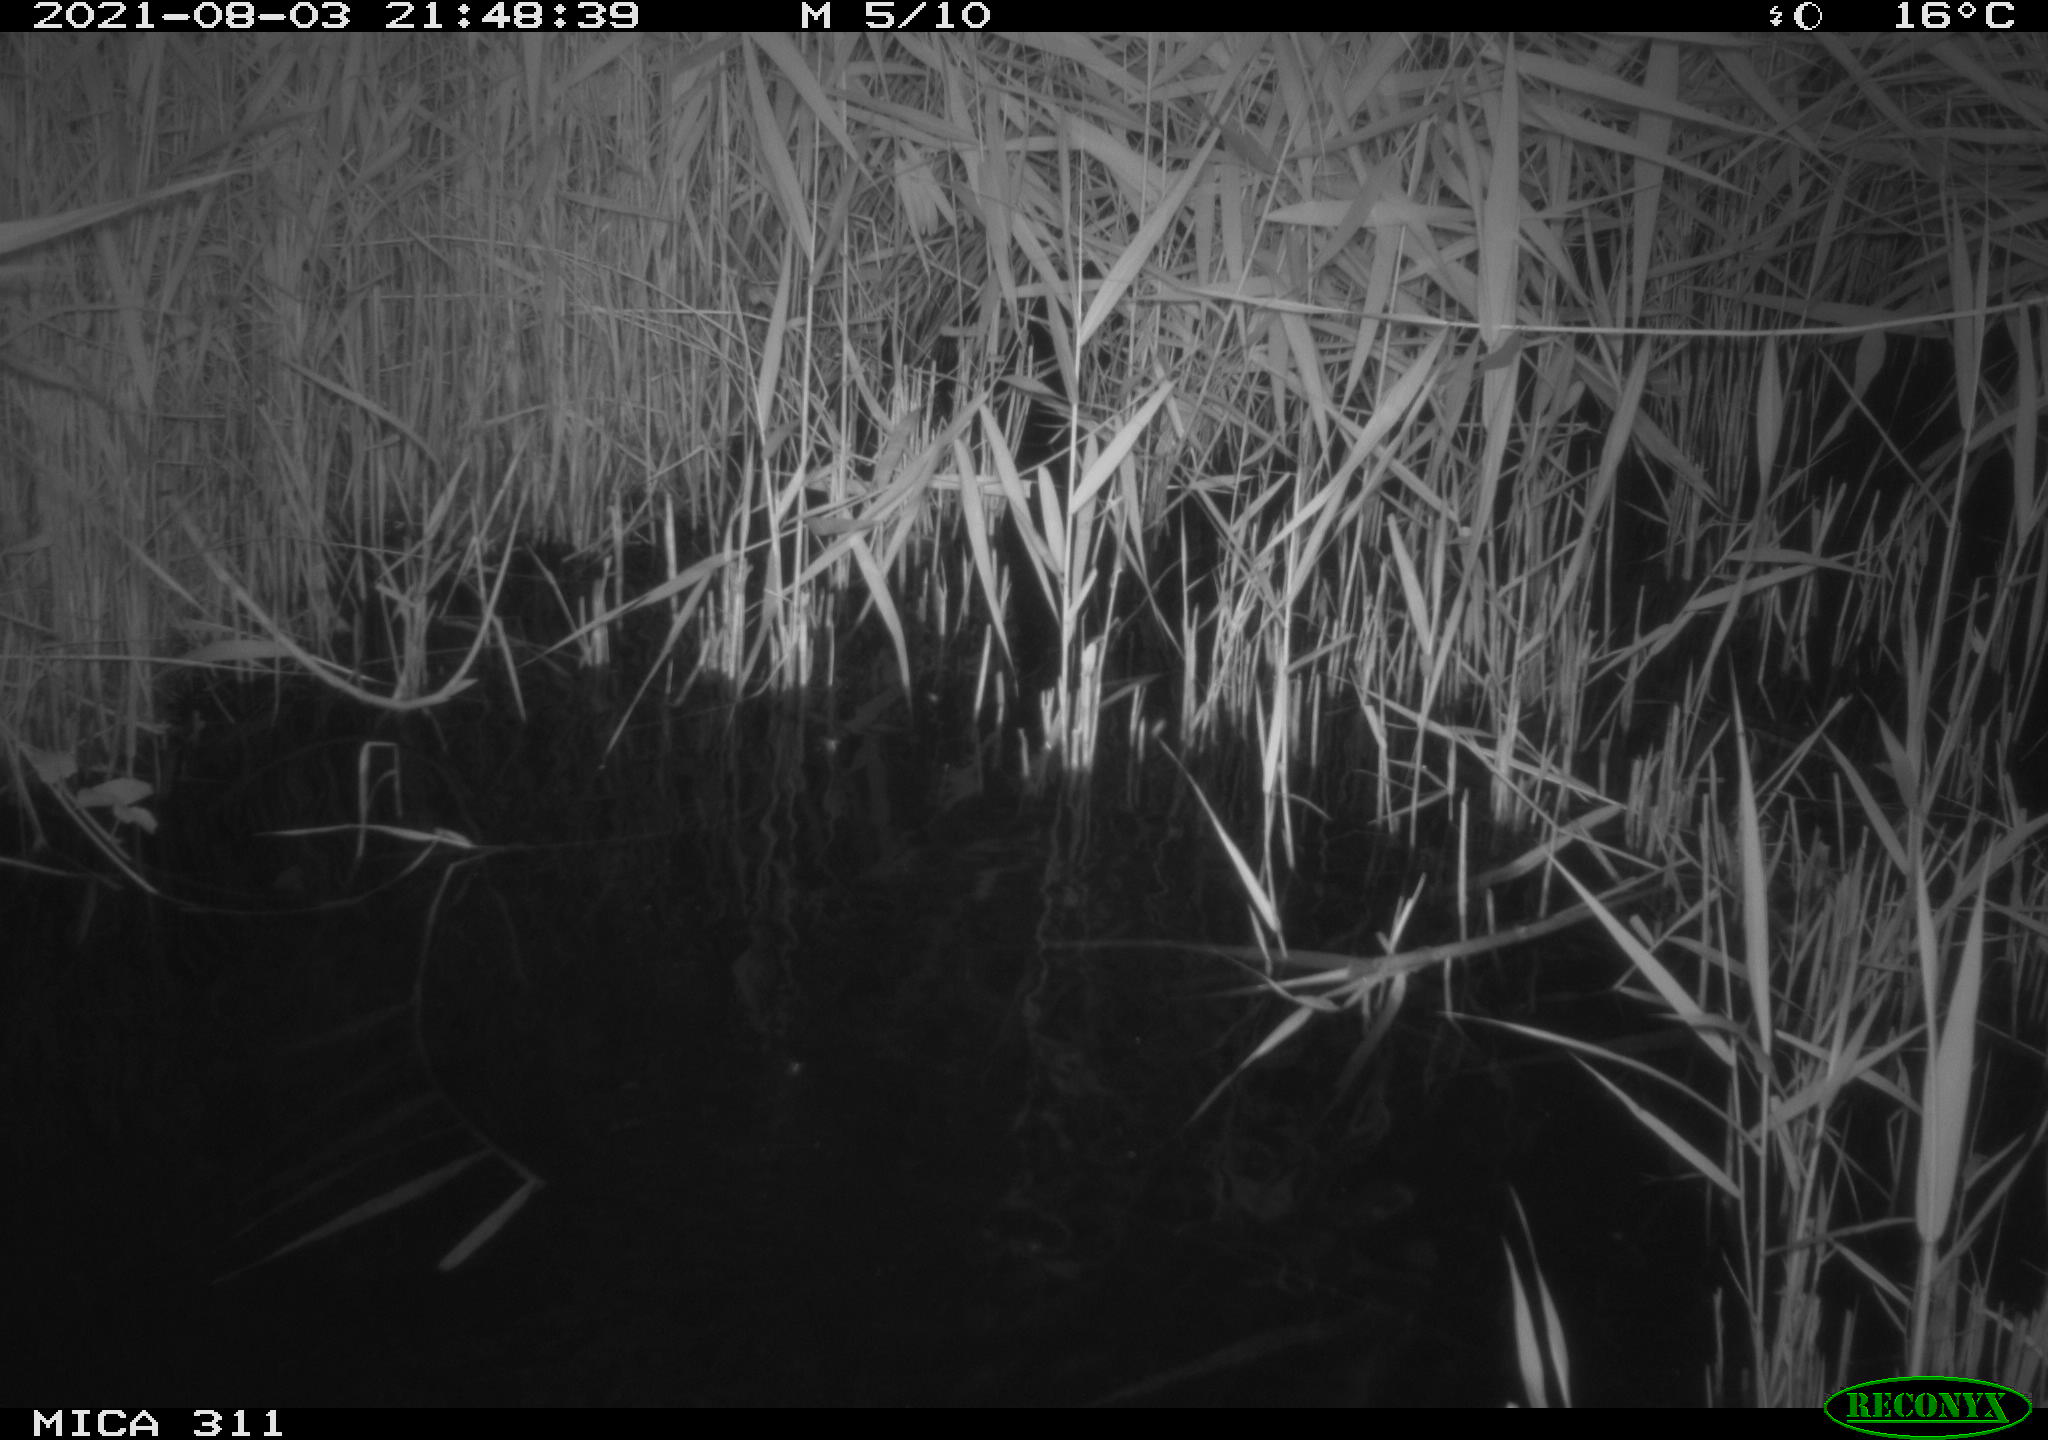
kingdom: Animalia
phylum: Chordata
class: Mammalia
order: Rodentia
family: Muridae
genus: Rattus
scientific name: Rattus norvegicus
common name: Brown rat
